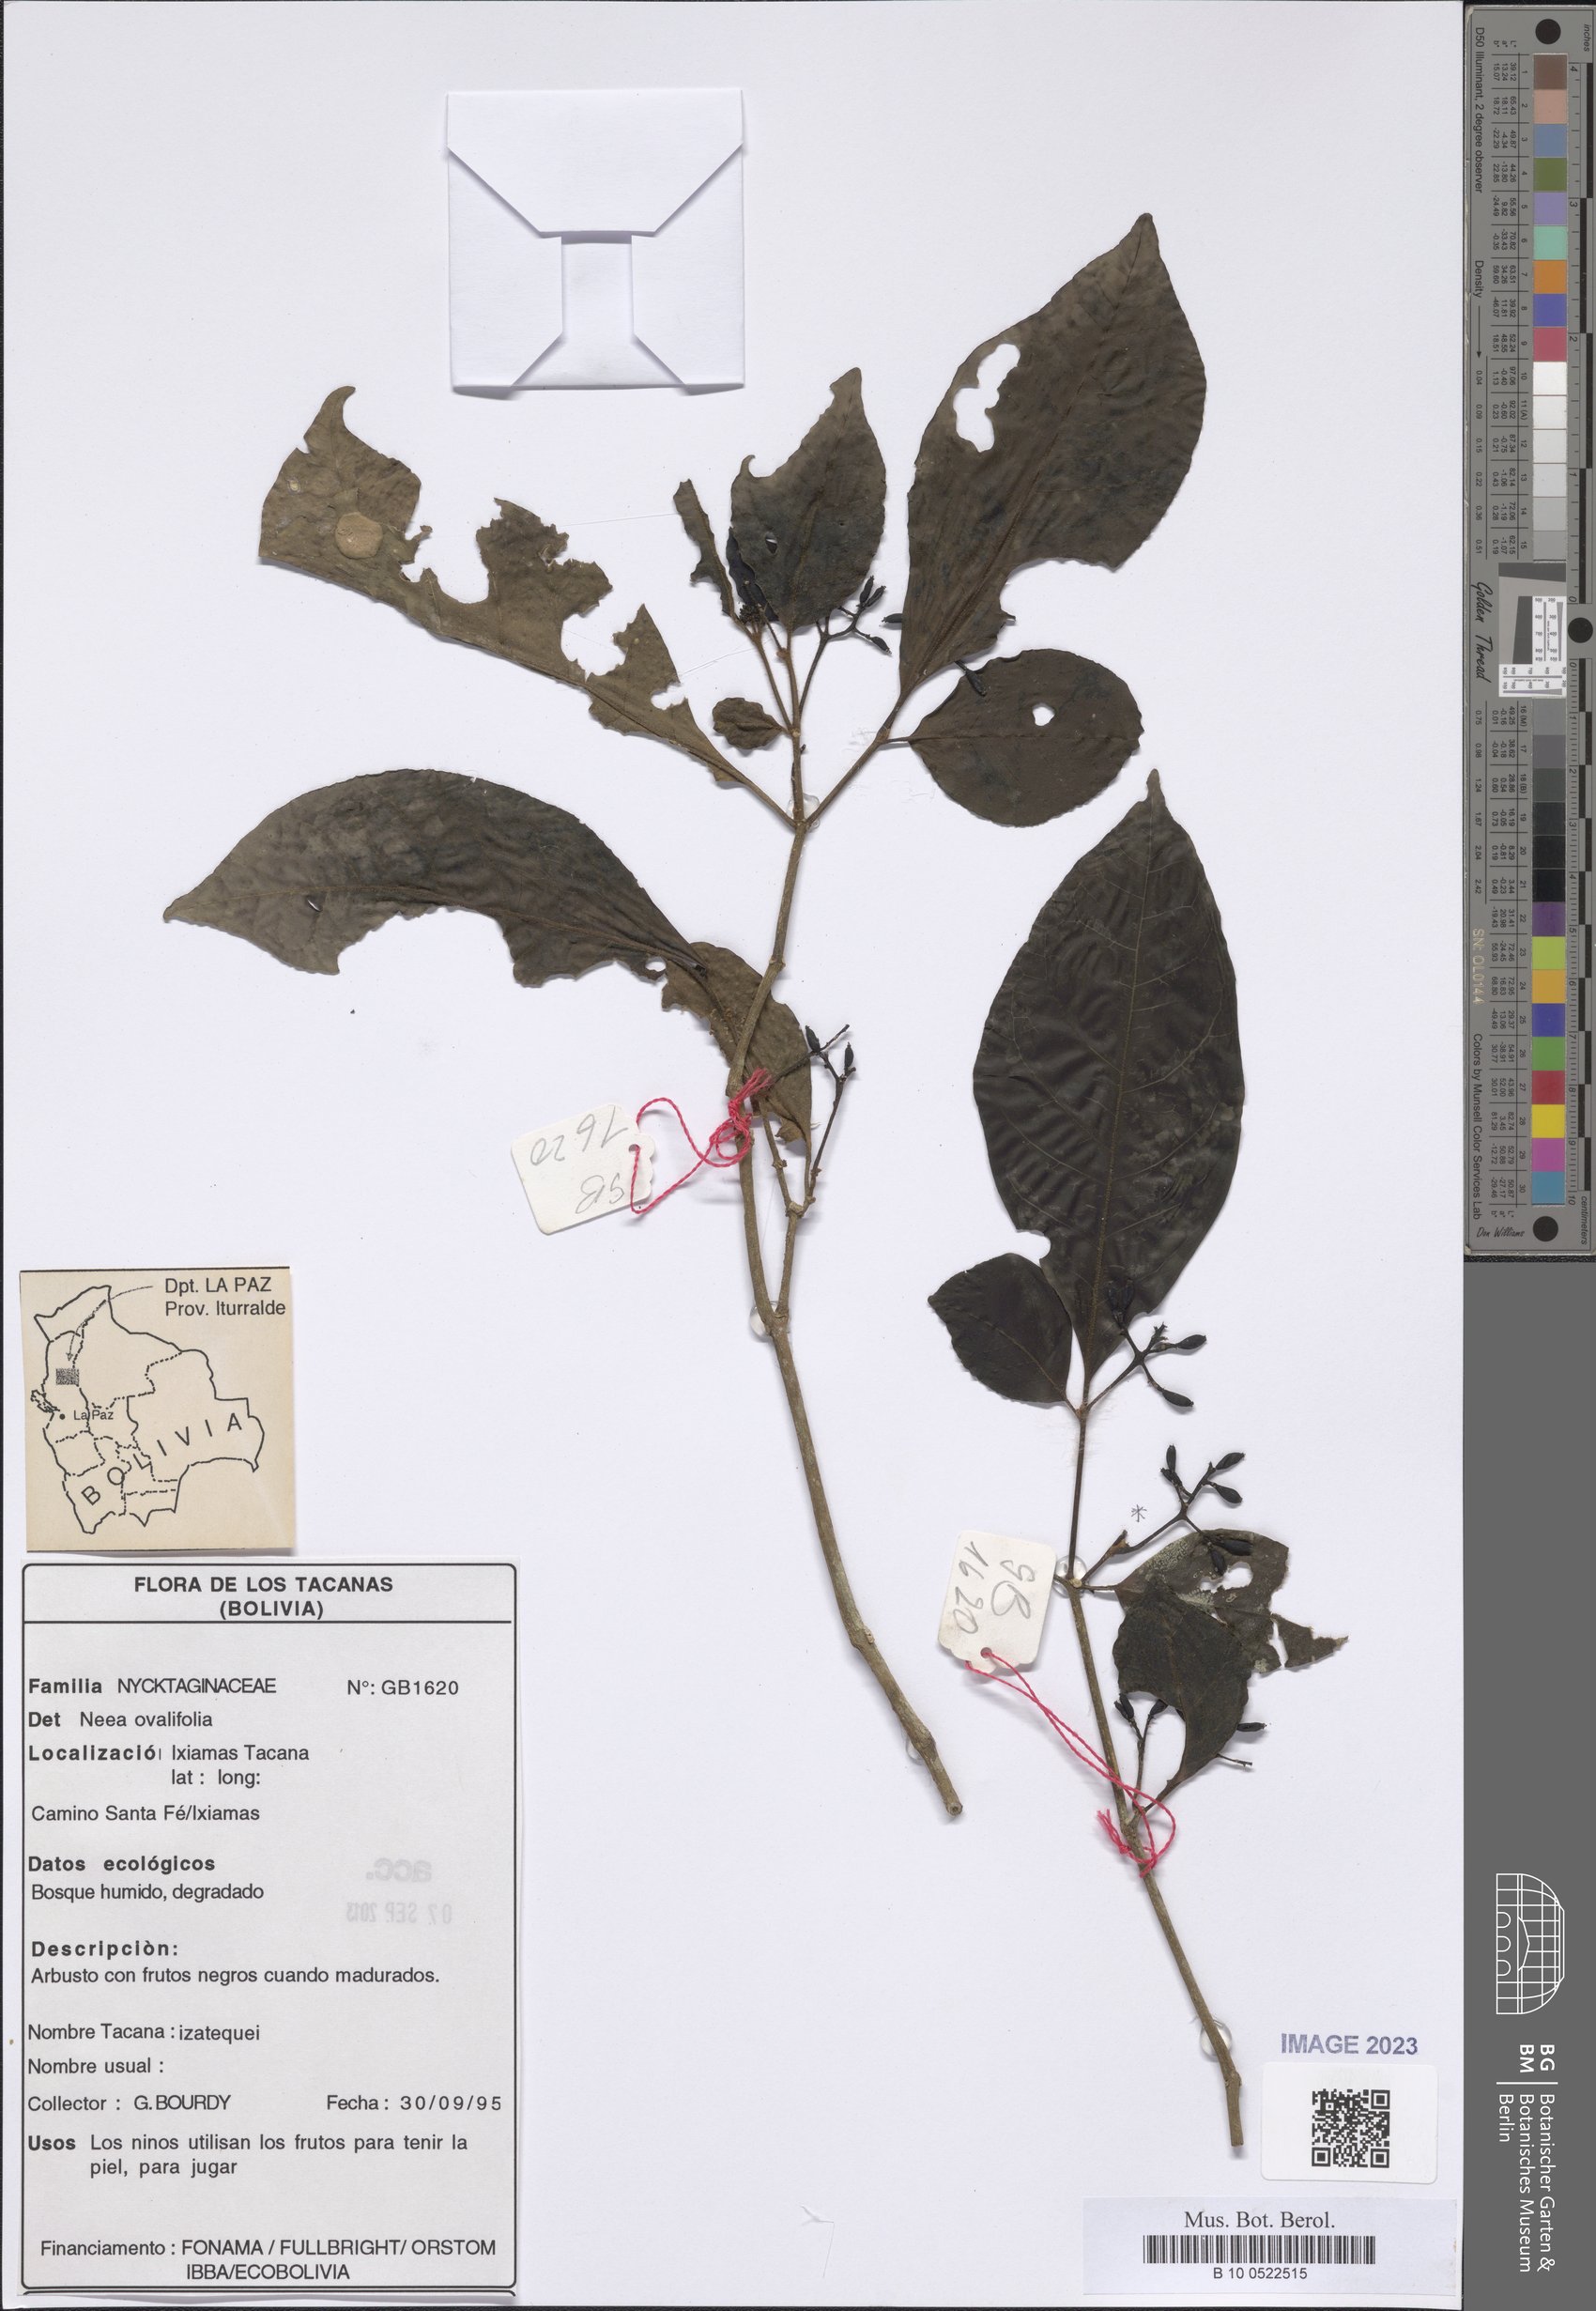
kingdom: Plantae
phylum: Tracheophyta
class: Magnoliopsida
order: Caryophyllales
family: Nyctaginaceae
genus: Neea
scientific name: Neea ovalifolia
